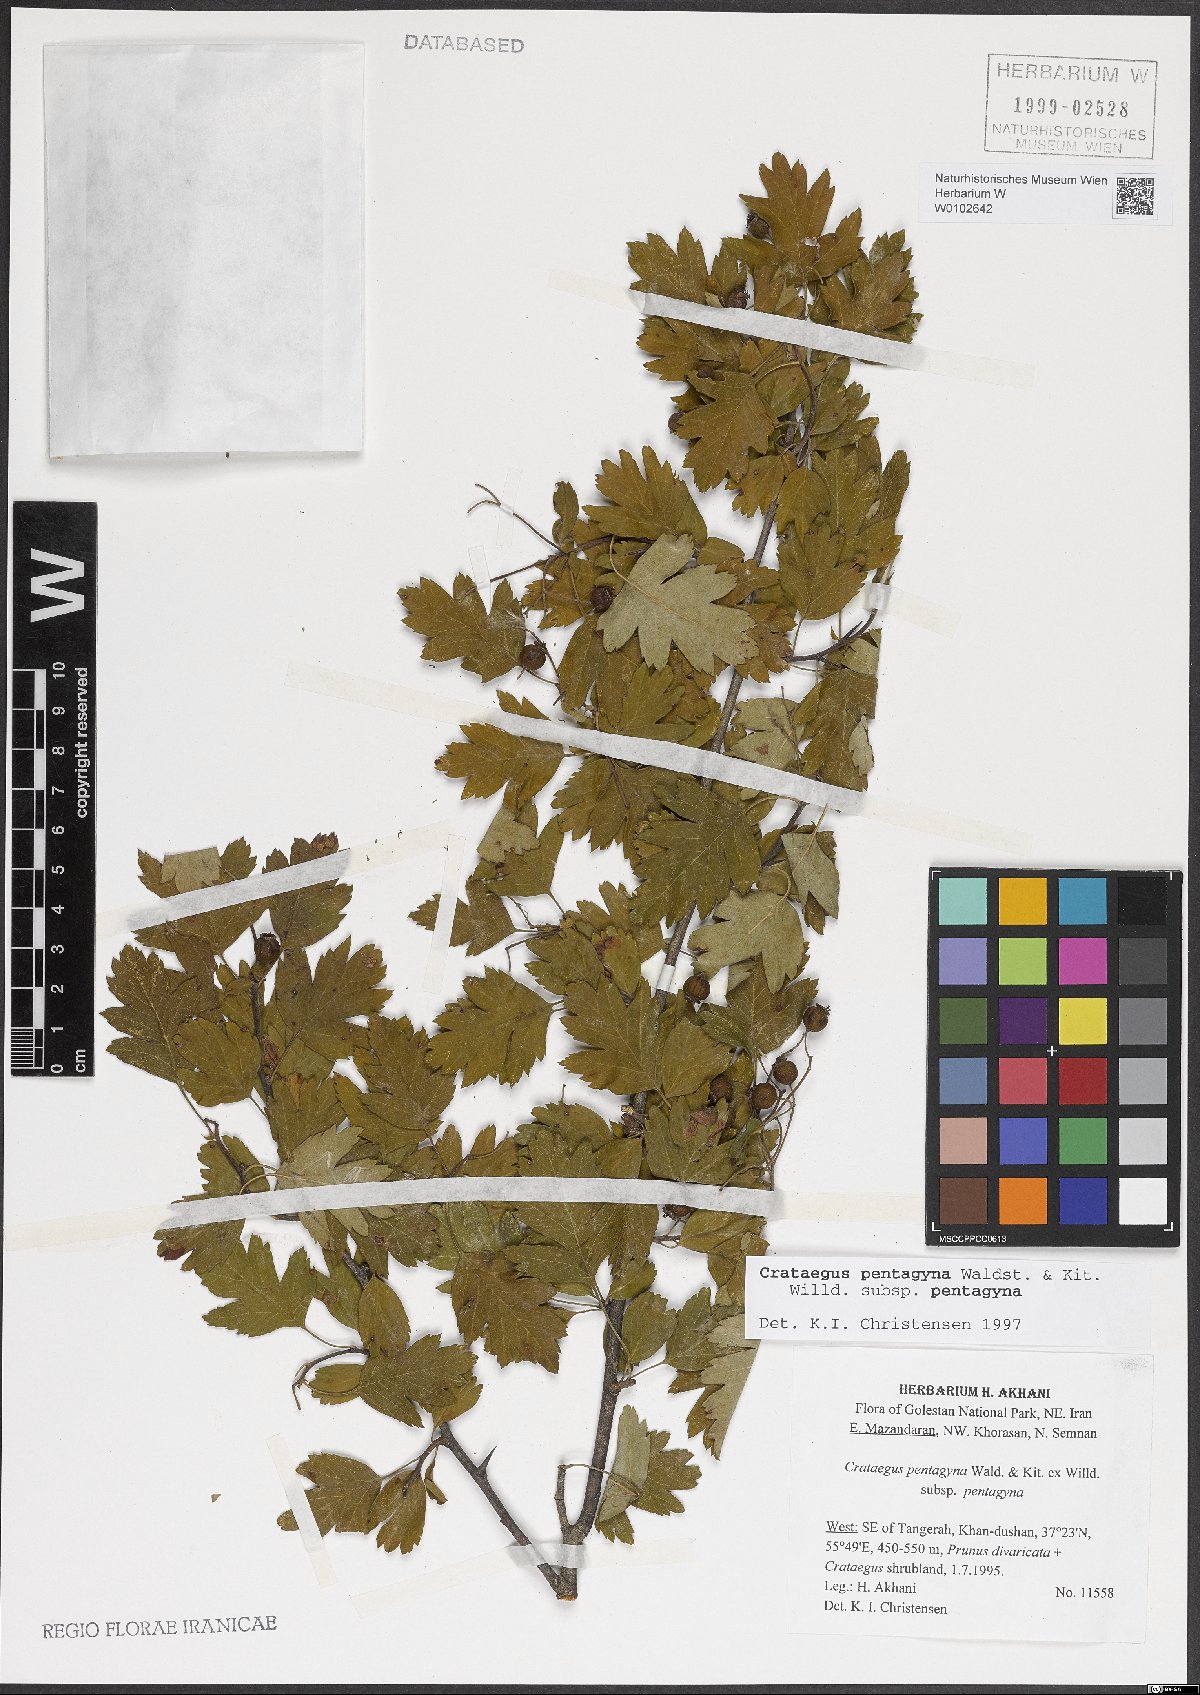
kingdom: Plantae
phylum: Tracheophyta
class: Magnoliopsida
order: Rosales
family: Rosaceae
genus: Crataegus
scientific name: Crataegus pentagyna
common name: Small-flowered black hawthorn
